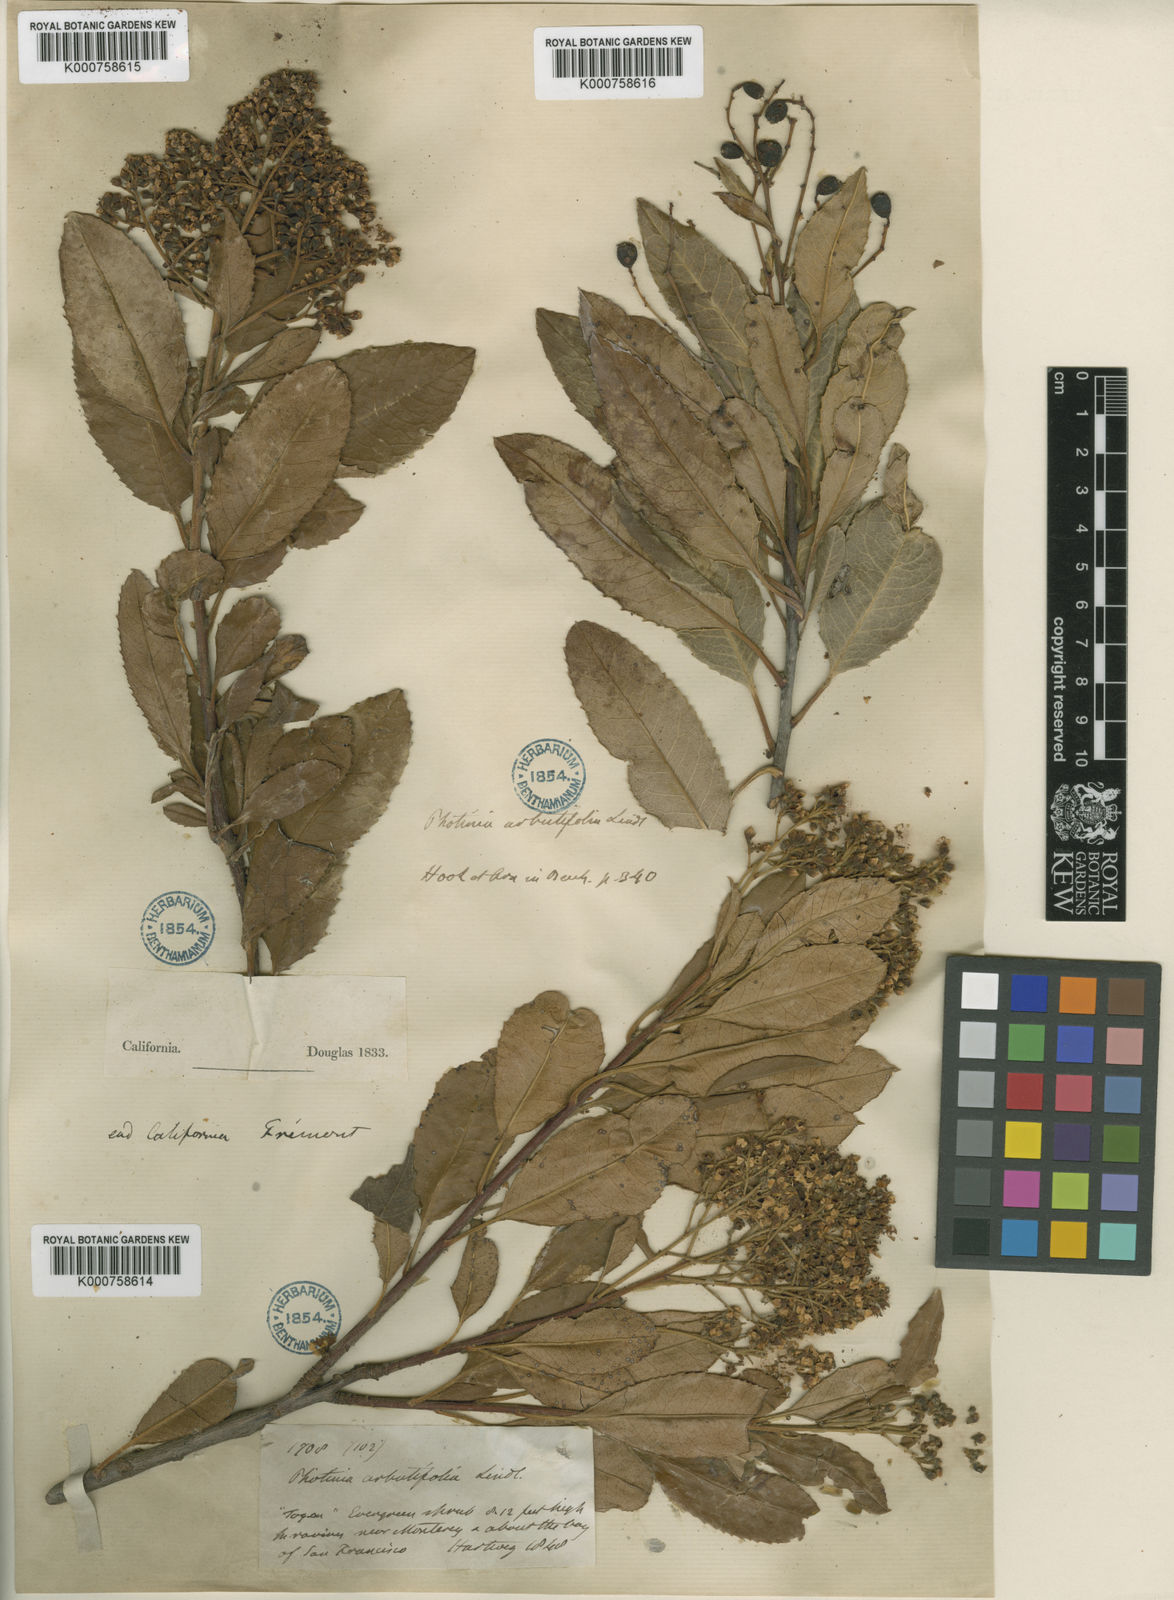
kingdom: Plantae
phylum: Tracheophyta
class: Magnoliopsida
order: Rosales
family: Rosaceae
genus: Heteromeles
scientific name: Heteromeles arbutifolia
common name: California-holly
